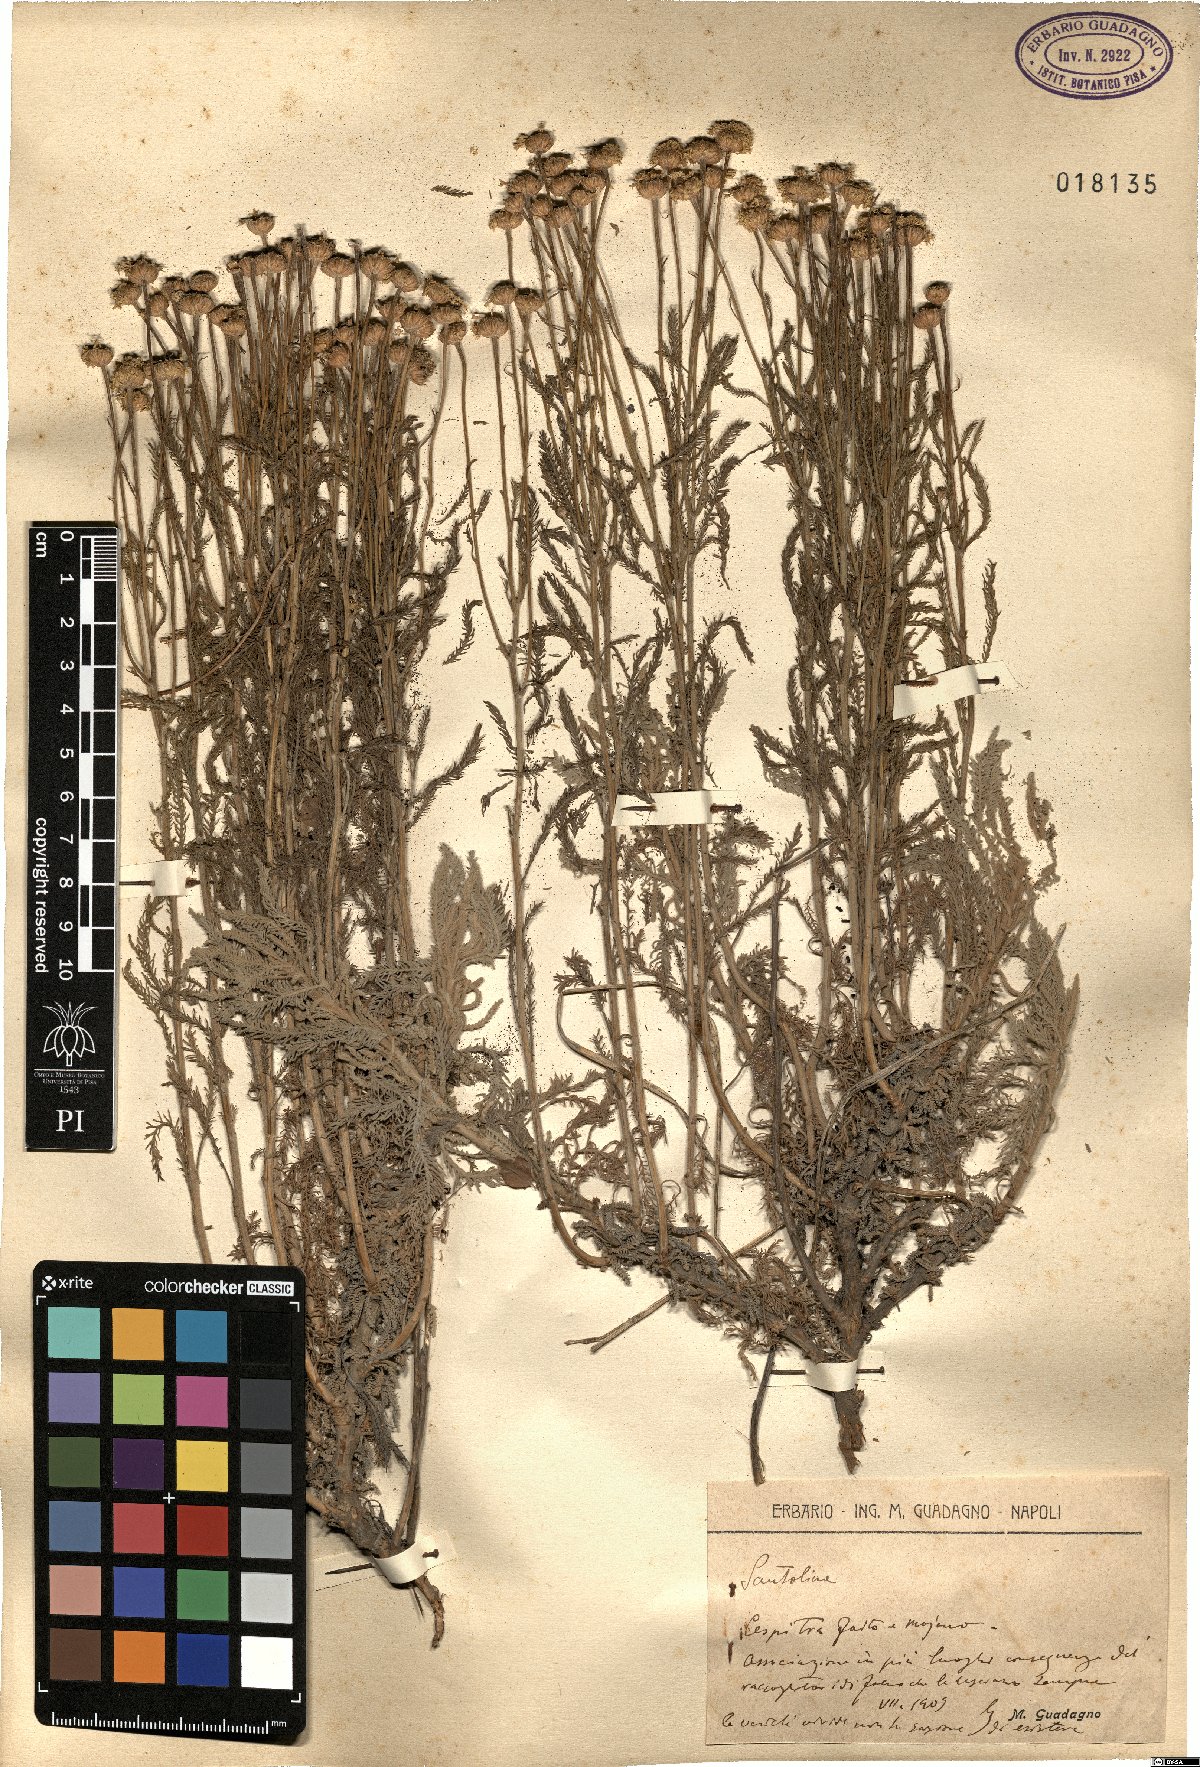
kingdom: Plantae
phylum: Tracheophyta
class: Magnoliopsida
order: Asterales
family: Asteraceae
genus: Santolina
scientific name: Santolina
